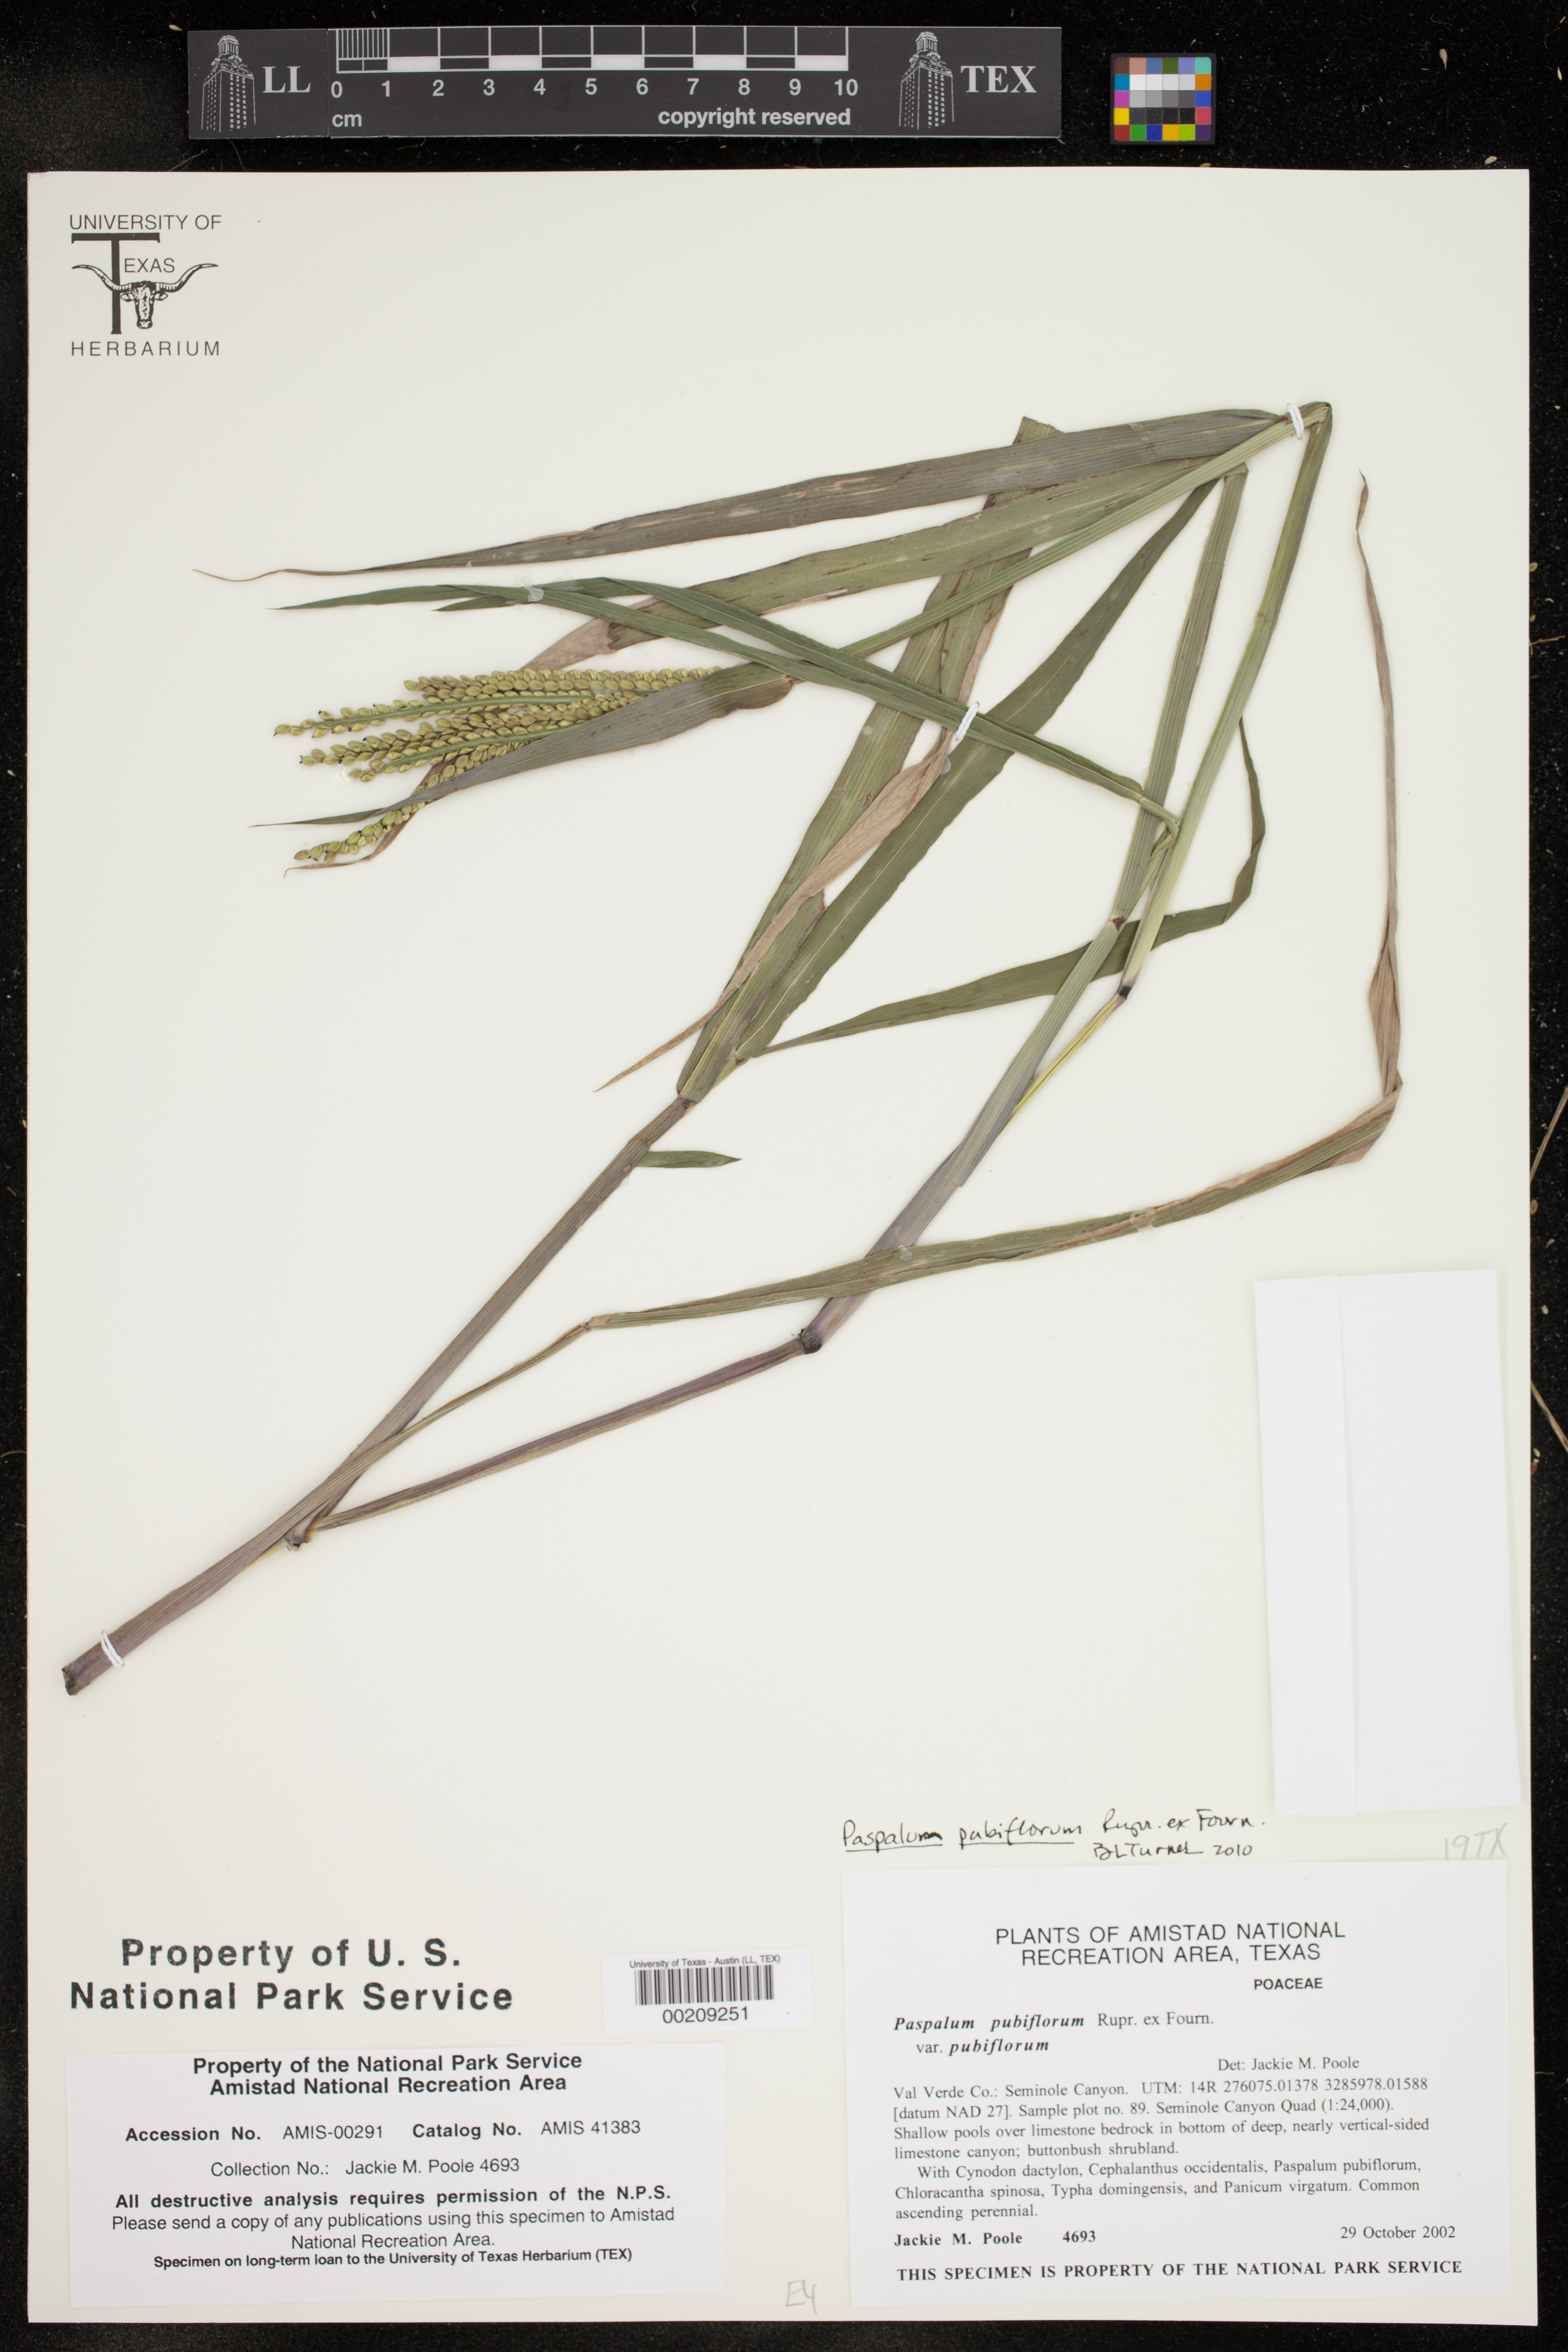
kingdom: Plantae
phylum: Tracheophyta
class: Liliopsida
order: Poales
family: Poaceae
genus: Paspalum
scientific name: Paspalum pubiflorum
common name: Hairy-seed paspalum
